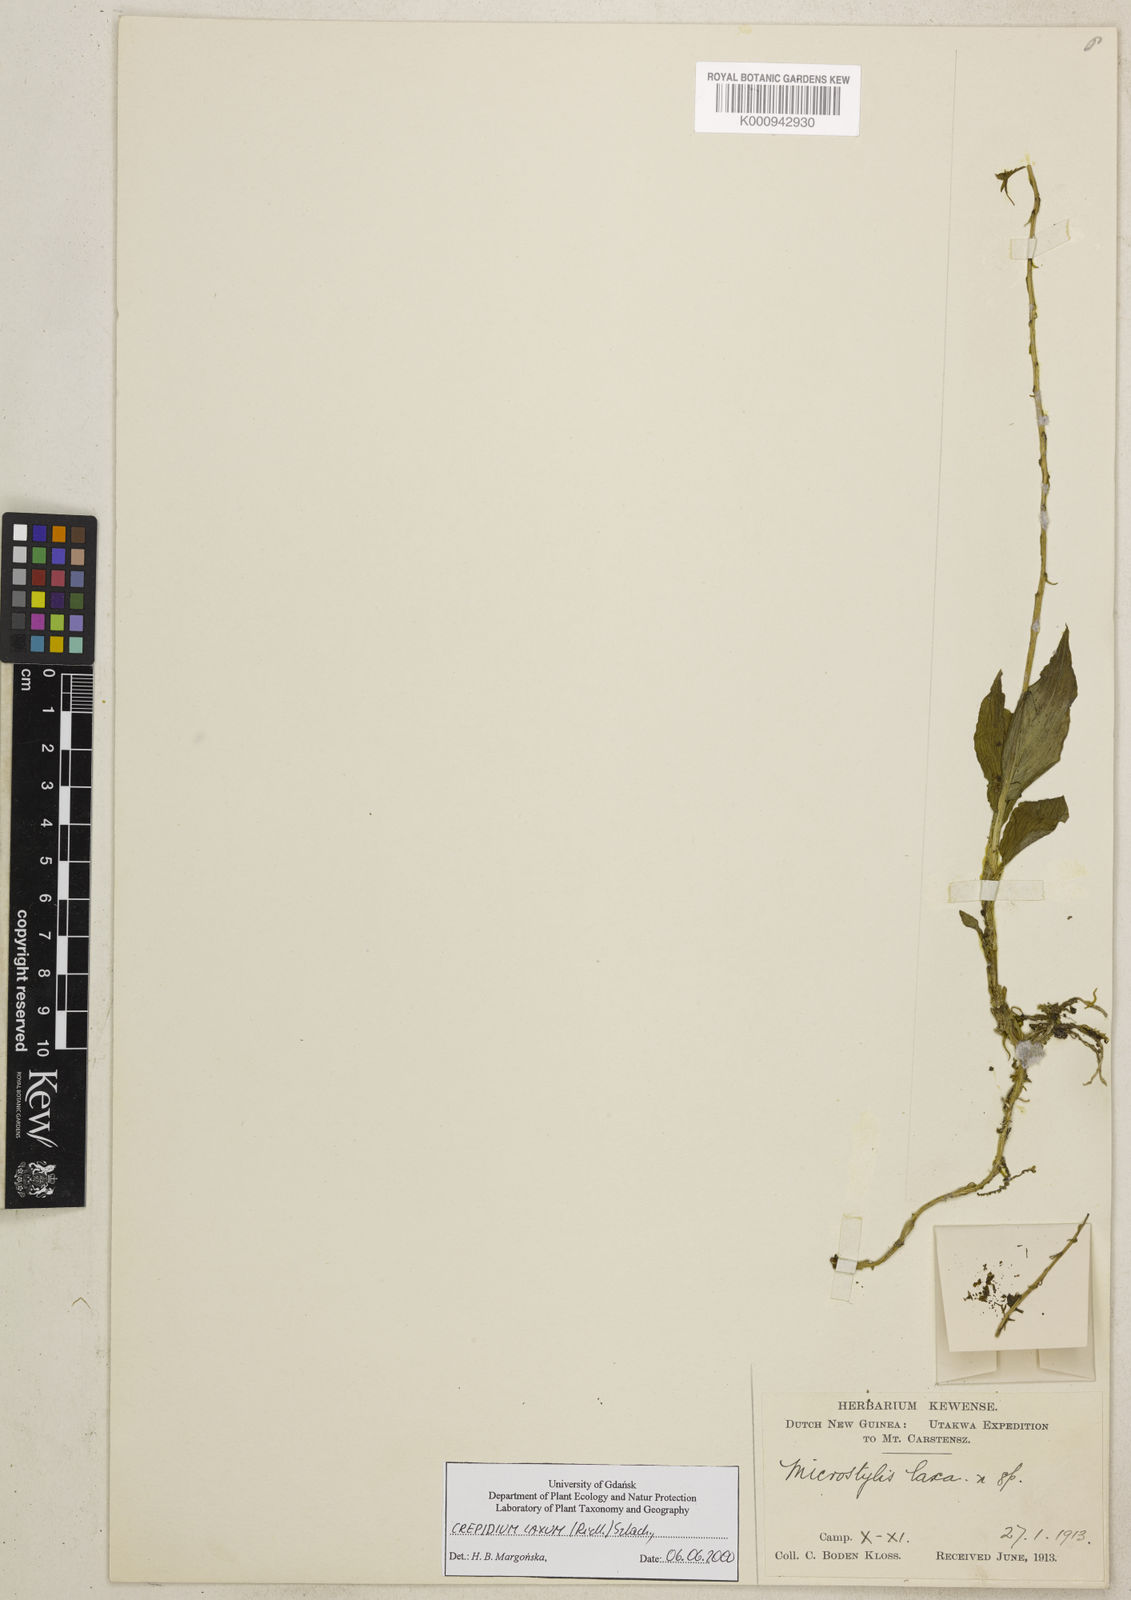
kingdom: Plantae
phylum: Tracheophyta
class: Liliopsida
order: Asparagales
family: Orchidaceae
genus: Crepidium
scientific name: Crepidium laxum
